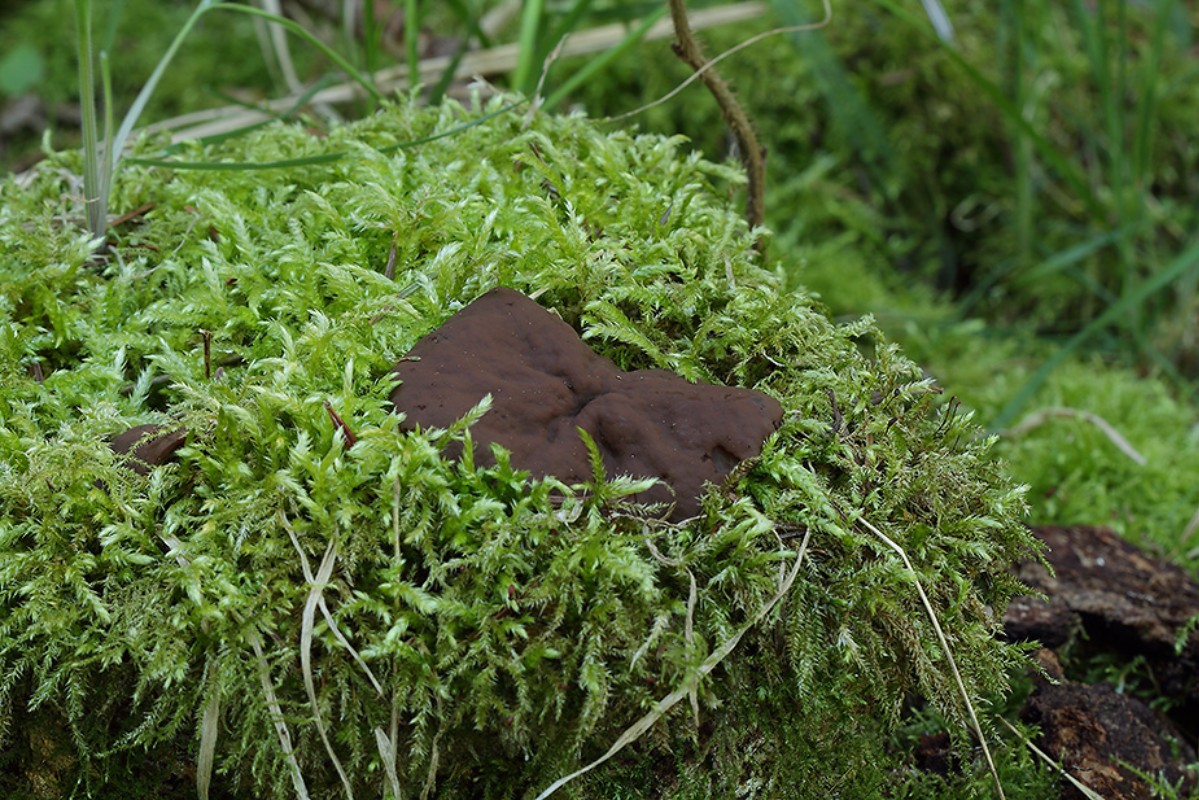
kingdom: Fungi
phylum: Ascomycota
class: Pezizomycetes
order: Pezizales
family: Discinaceae
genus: Discina
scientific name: Discina ancilis
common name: udbredt stenmorkel
